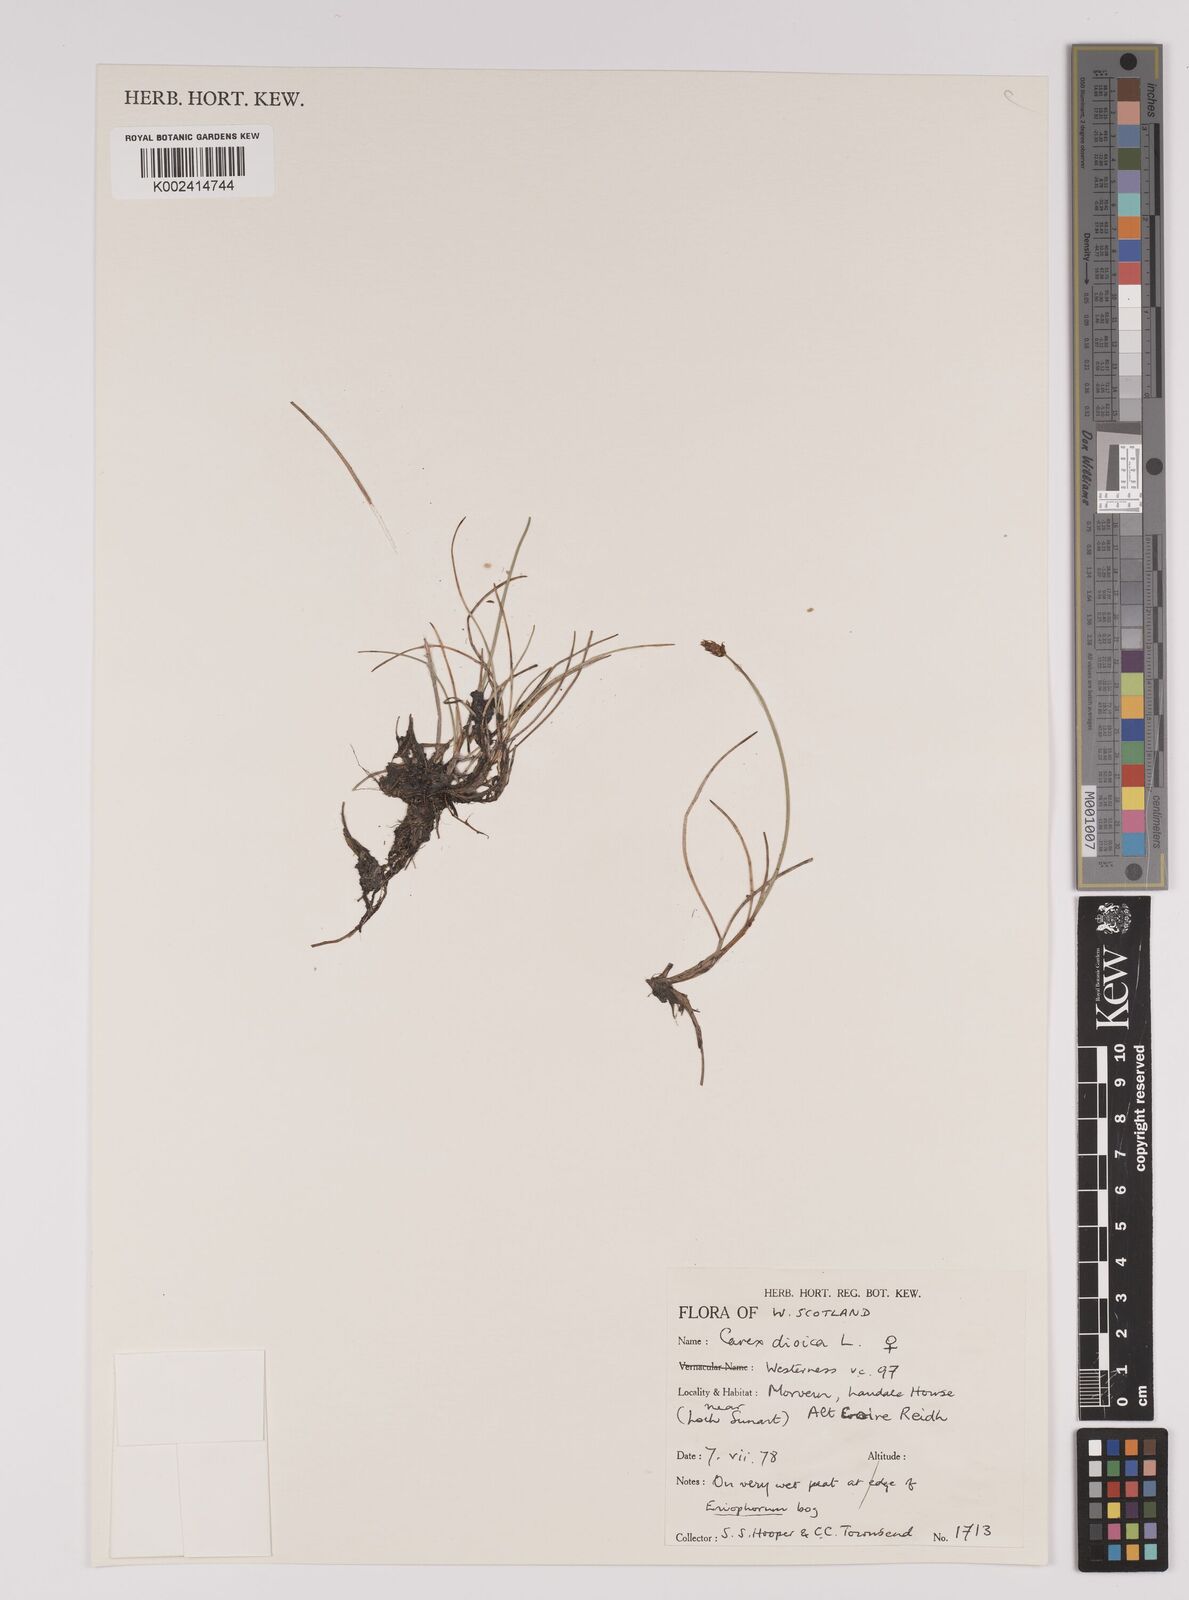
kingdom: Plantae
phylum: Tracheophyta
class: Liliopsida
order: Poales
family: Cyperaceae
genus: Carex
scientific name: Carex dioica
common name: Dioecious sedge
